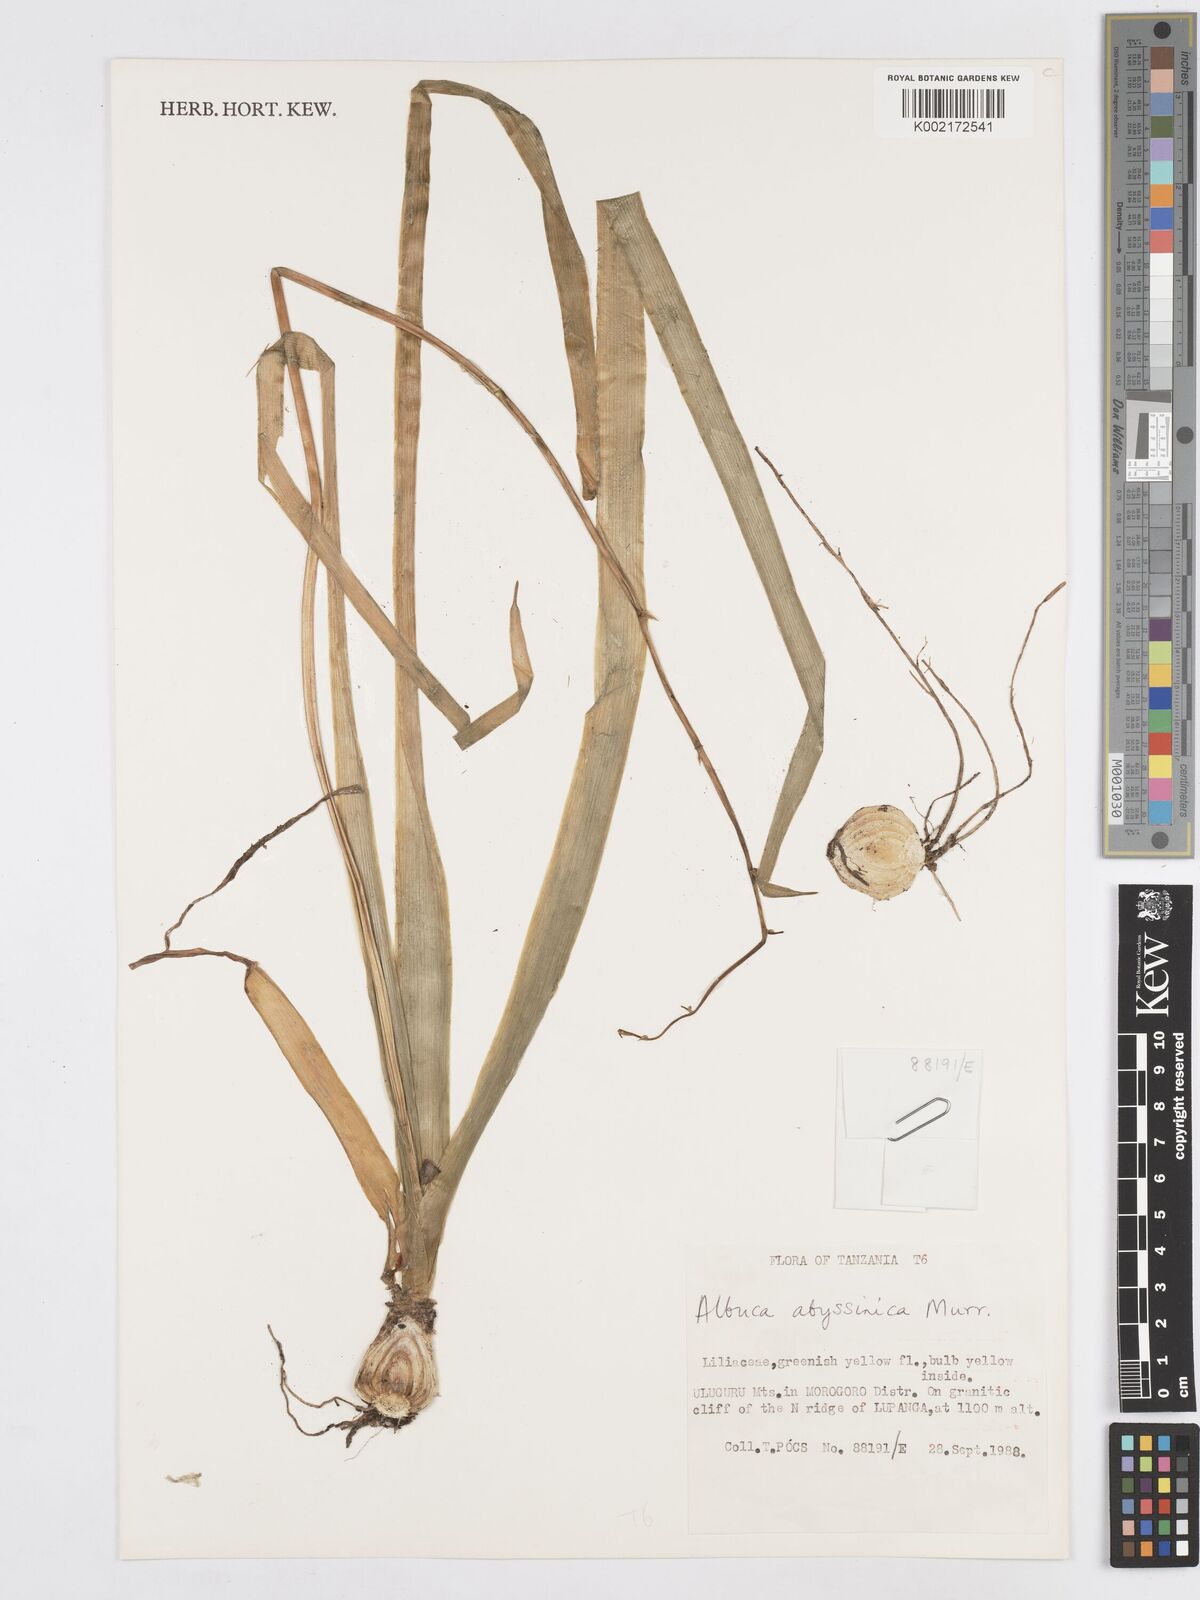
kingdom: Plantae
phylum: Tracheophyta
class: Liliopsida
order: Asparagales
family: Asparagaceae
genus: Albuca
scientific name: Albuca abyssinica
